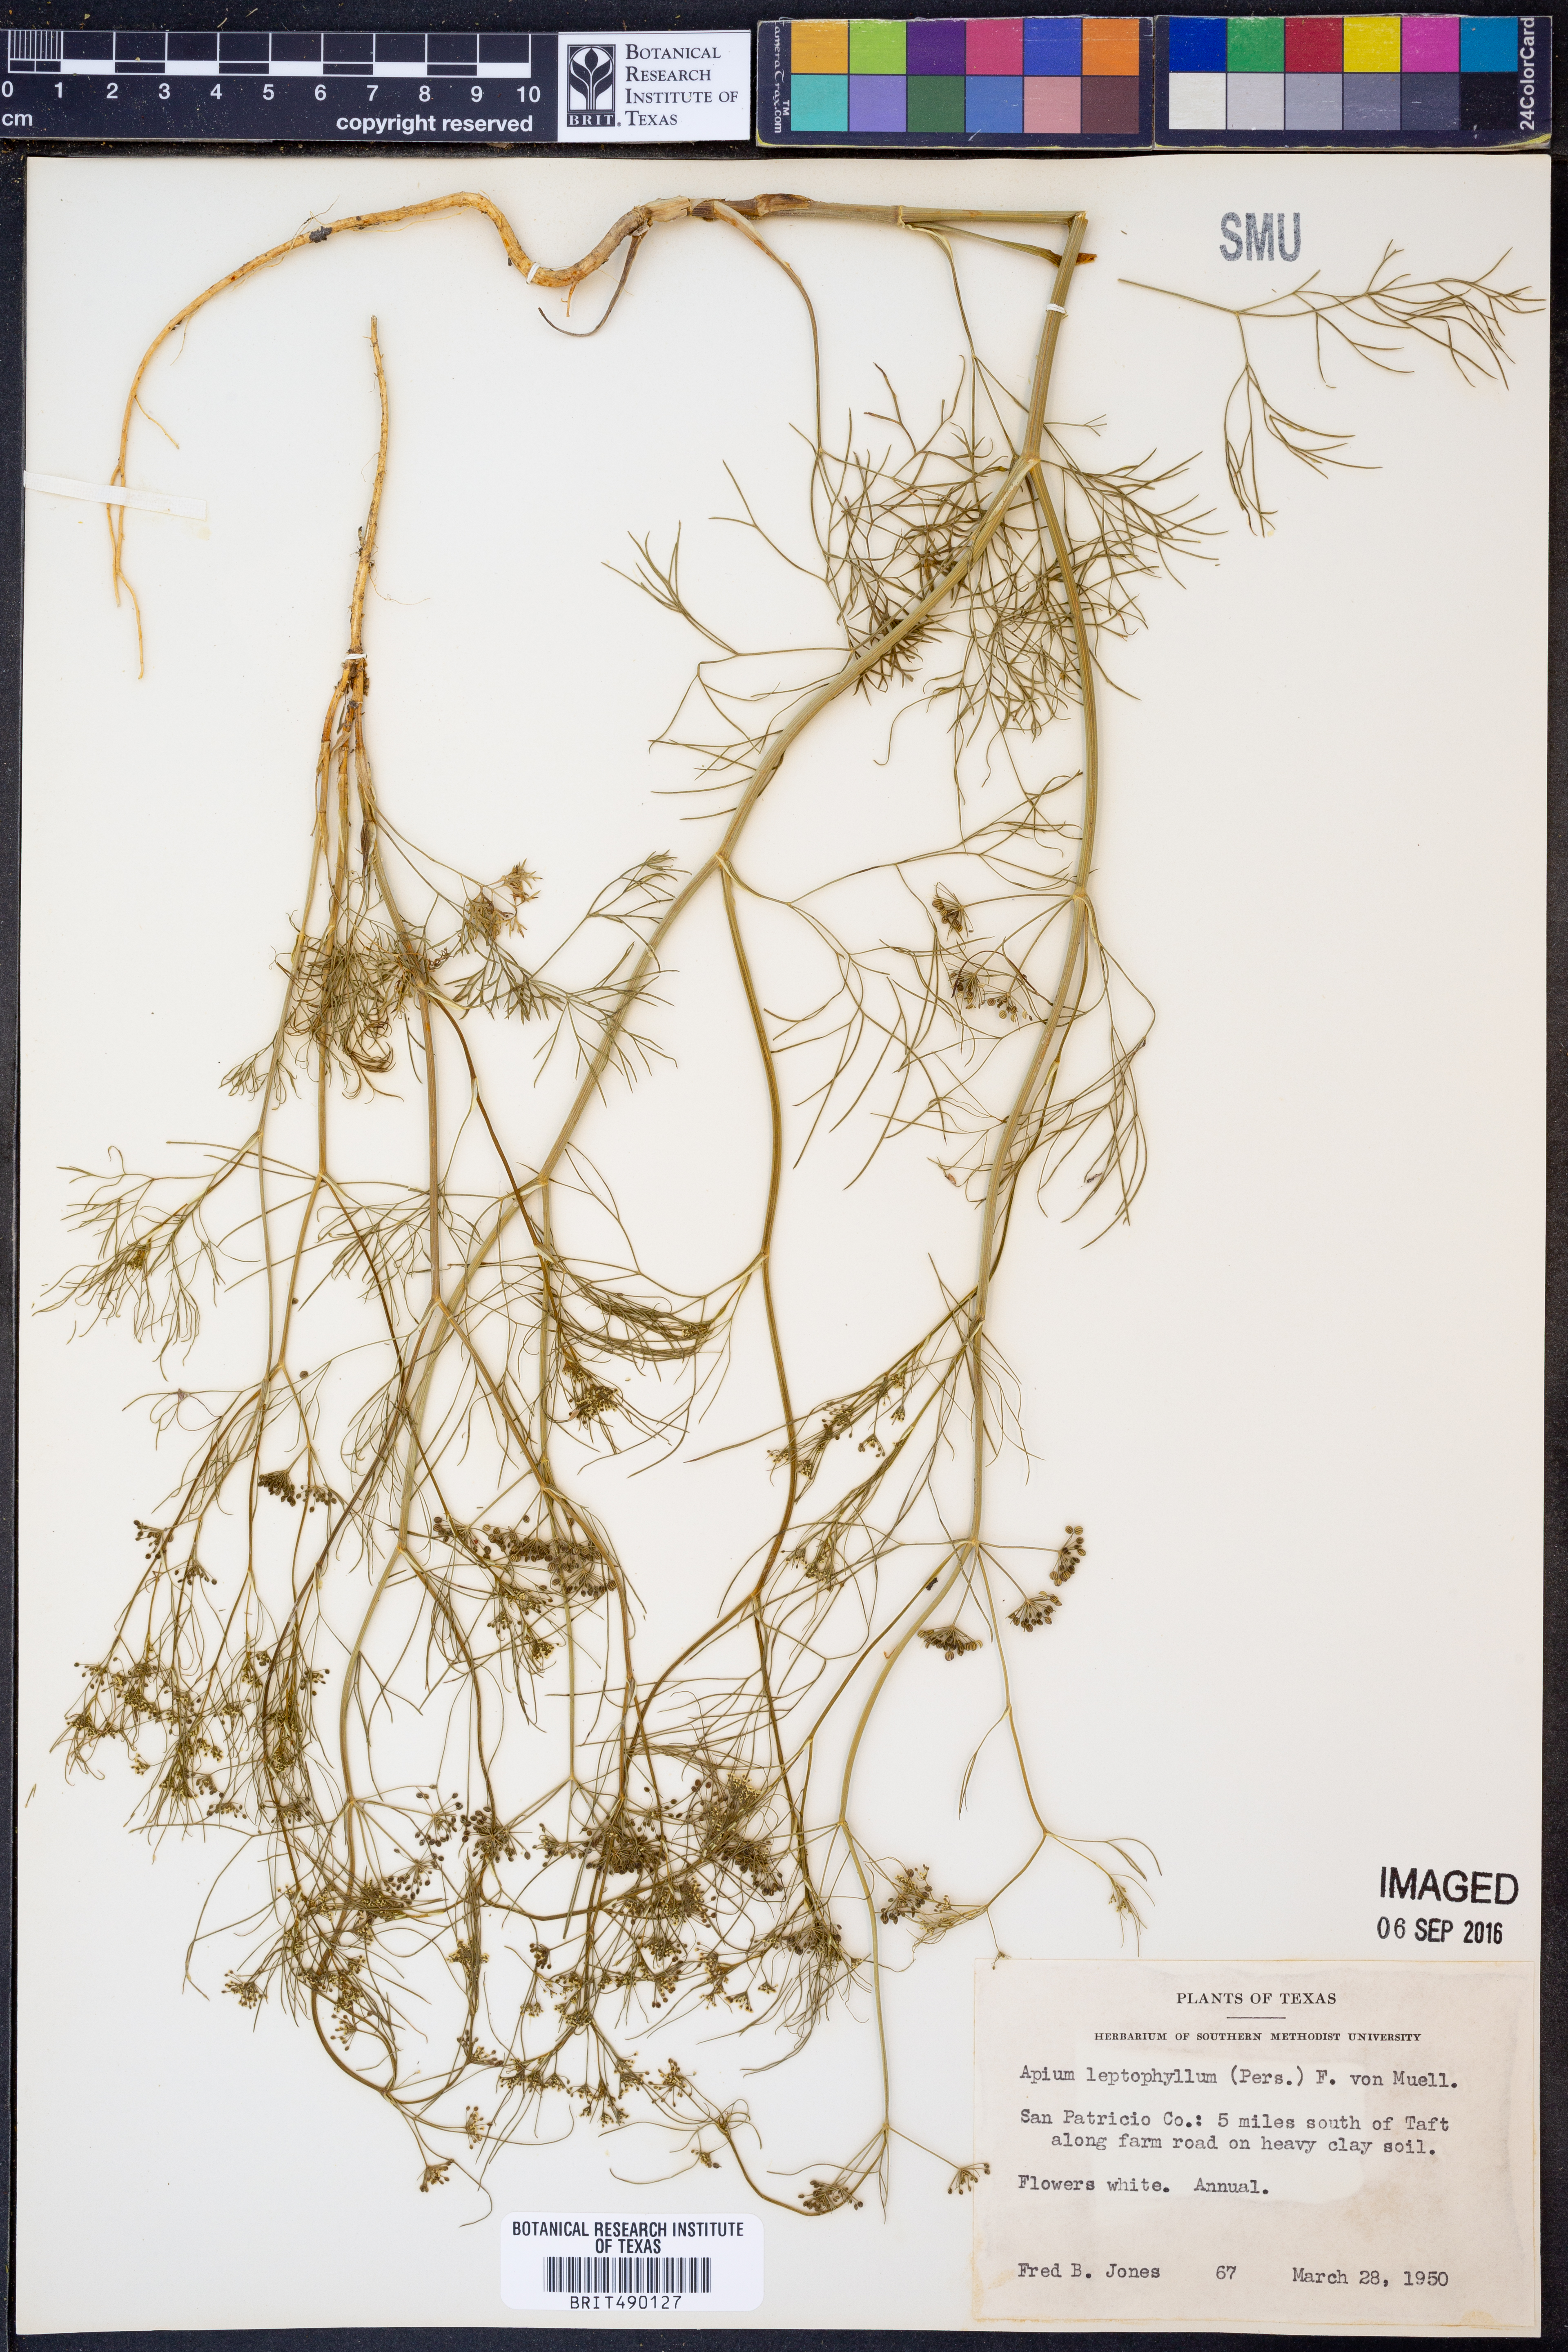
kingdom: Plantae
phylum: Tracheophyta
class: Magnoliopsida
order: Apiales
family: Apiaceae
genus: Cyclospermum
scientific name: Cyclospermum leptophyllum
